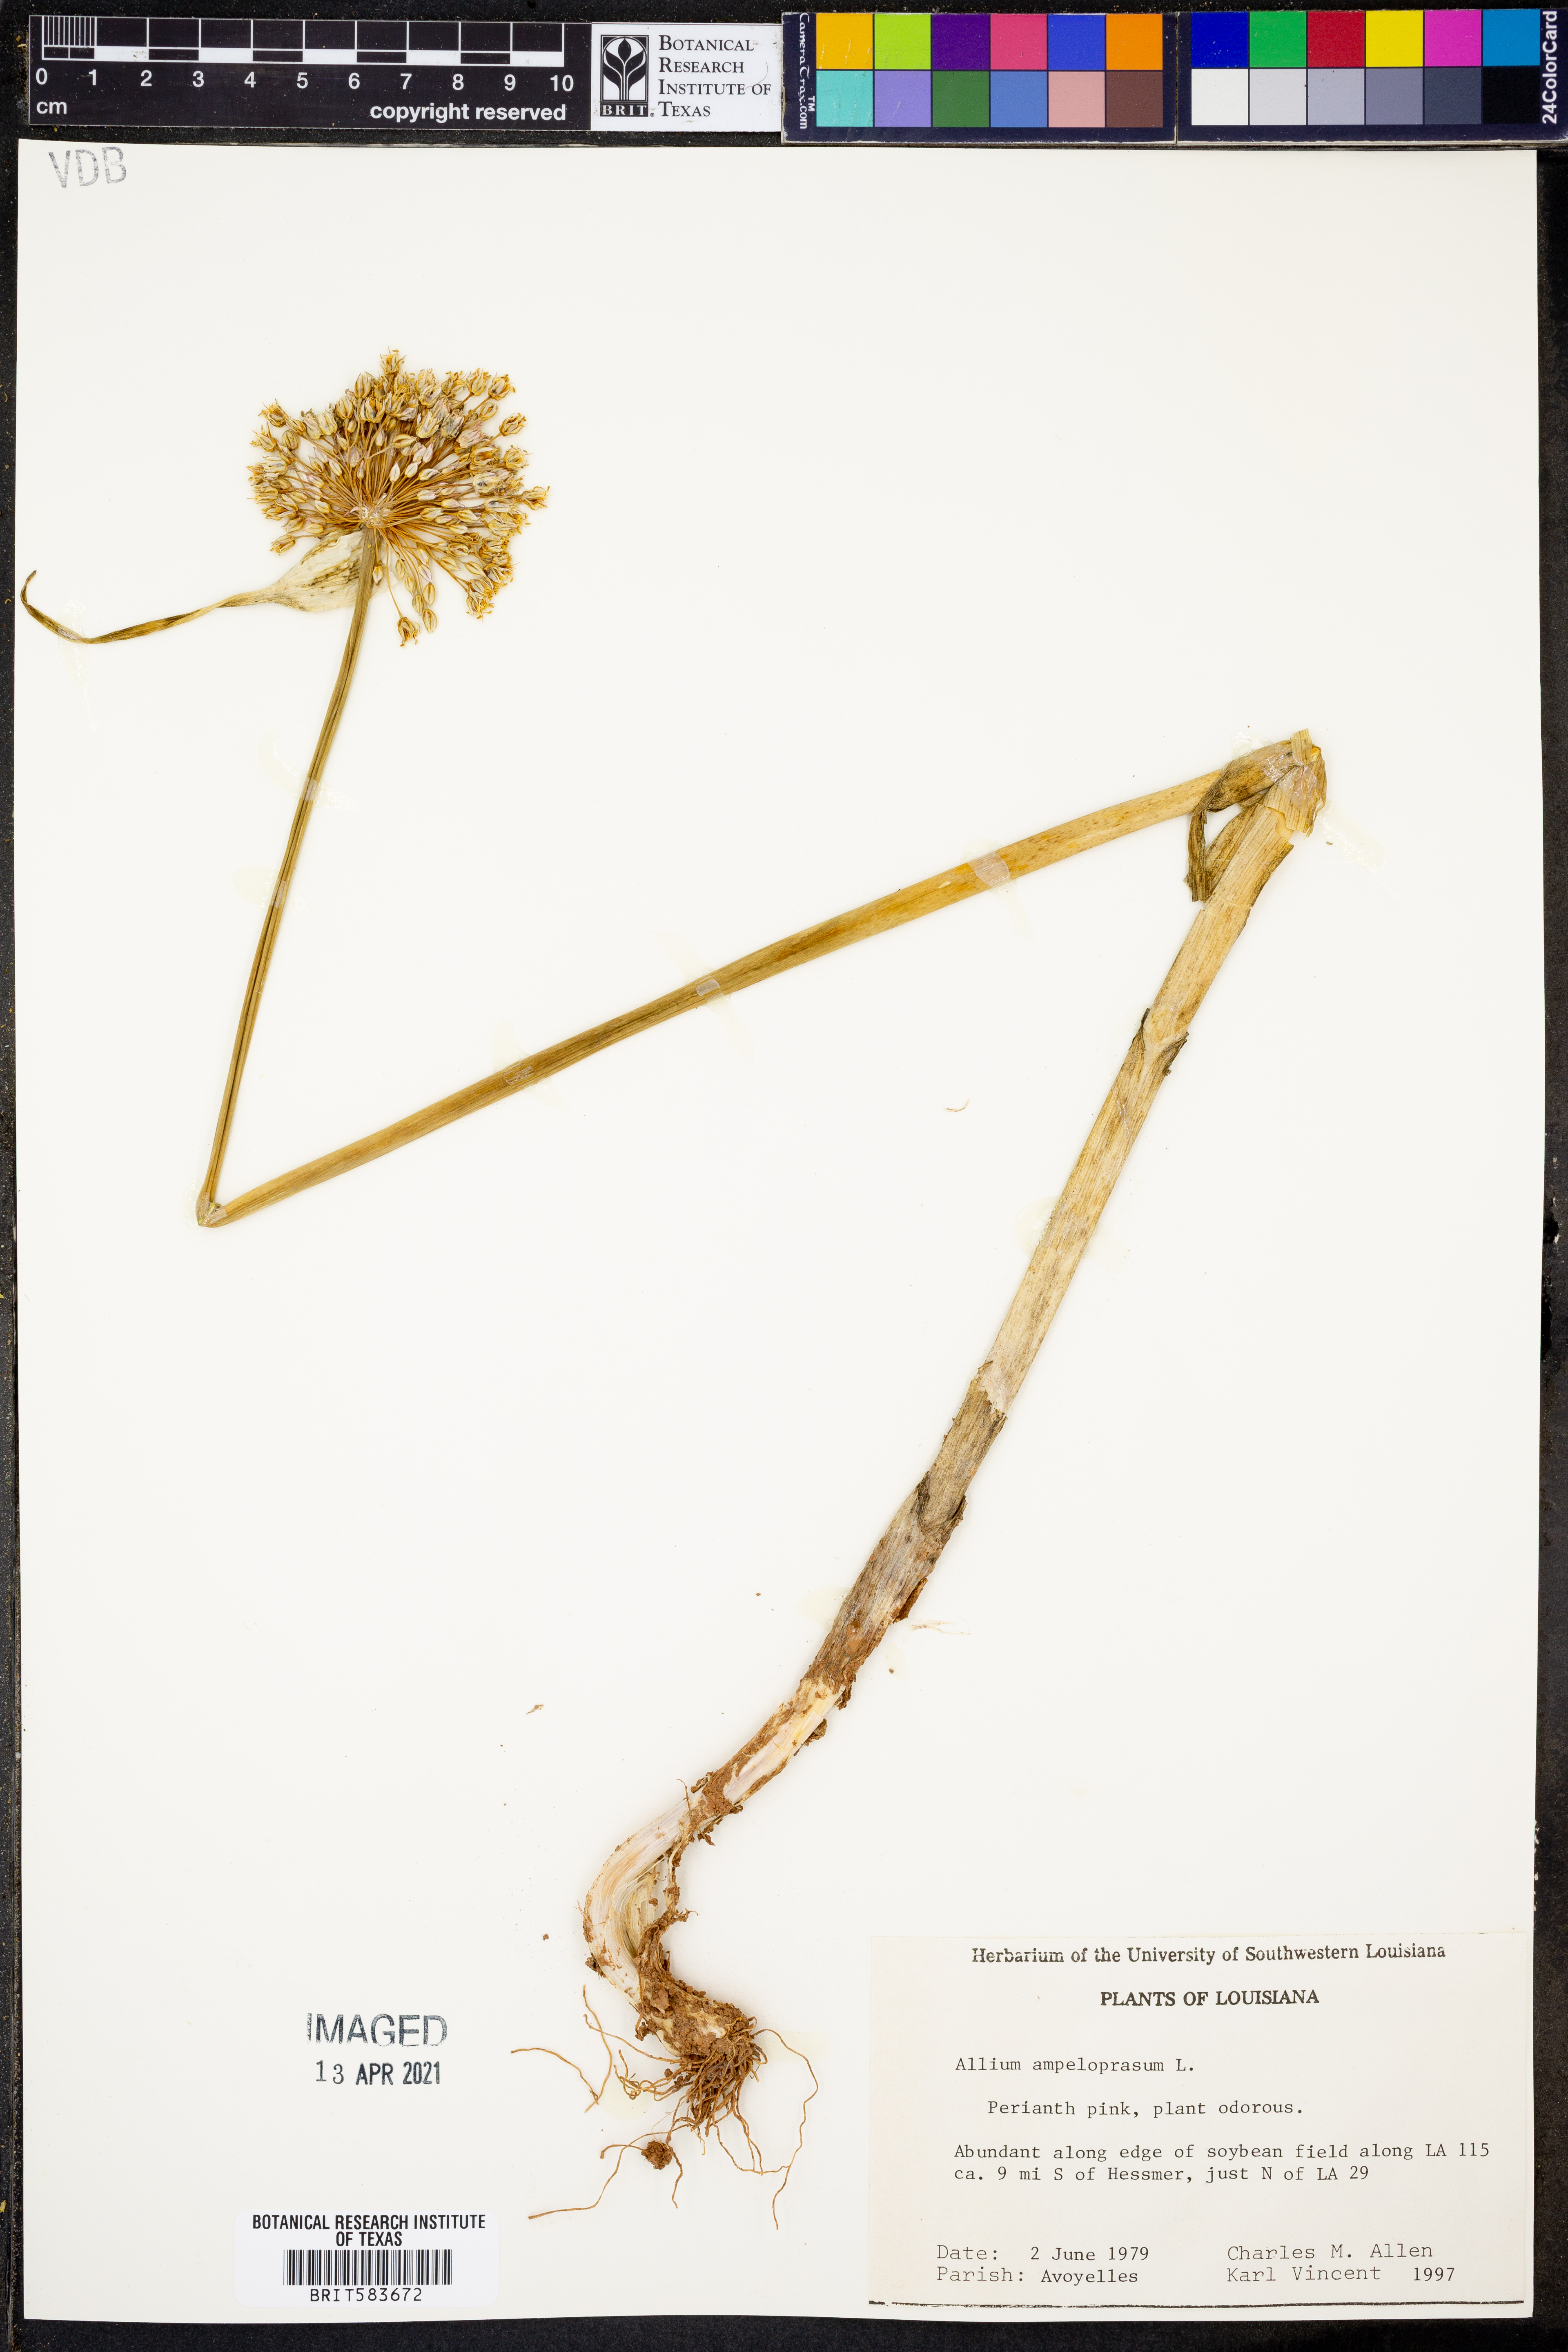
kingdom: Plantae
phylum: Tracheophyta
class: Liliopsida
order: Asparagales
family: Amaryllidaceae
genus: Allium
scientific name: Allium ampeloprasum
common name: Wild leek
